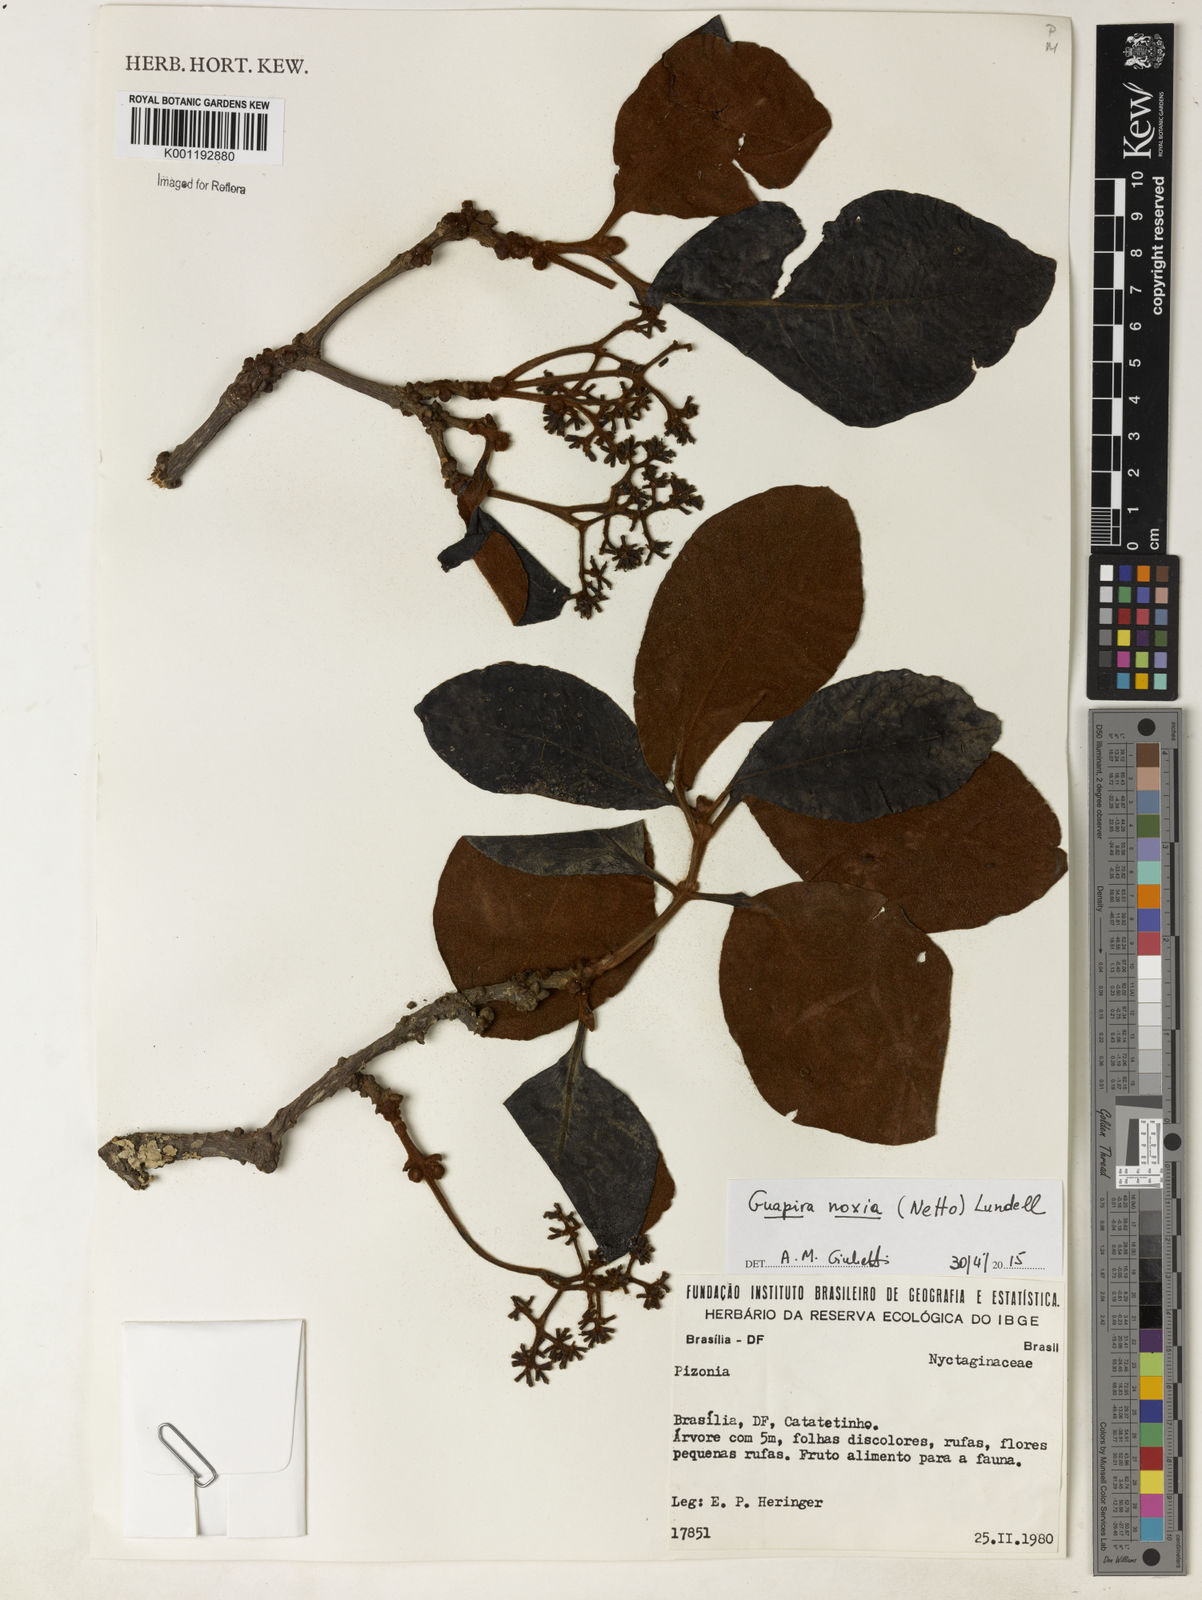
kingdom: Plantae
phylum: Tracheophyta
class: Magnoliopsida
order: Caryophyllales
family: Nyctaginaceae
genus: Guapira
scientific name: Guapira noxia
